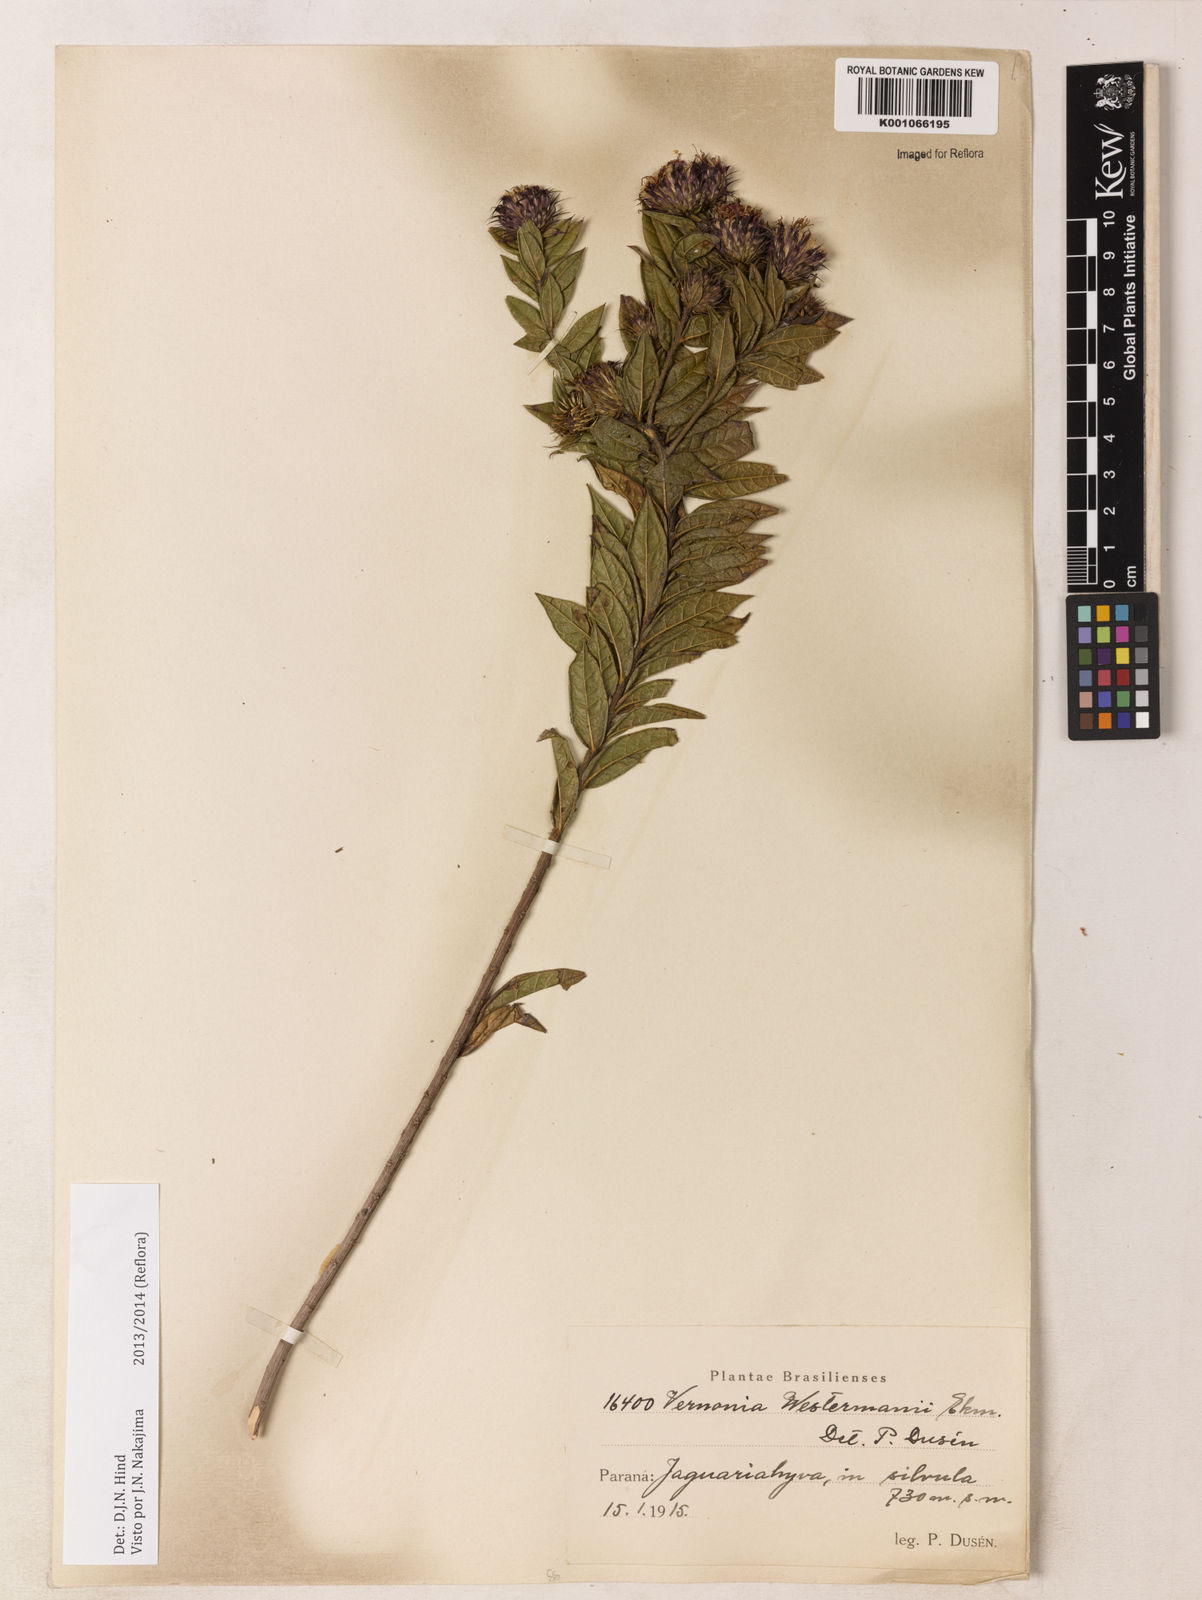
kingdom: Plantae
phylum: Tracheophyta
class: Magnoliopsida
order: Asterales
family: Asteraceae
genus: Vernonia
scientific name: Vernonia
